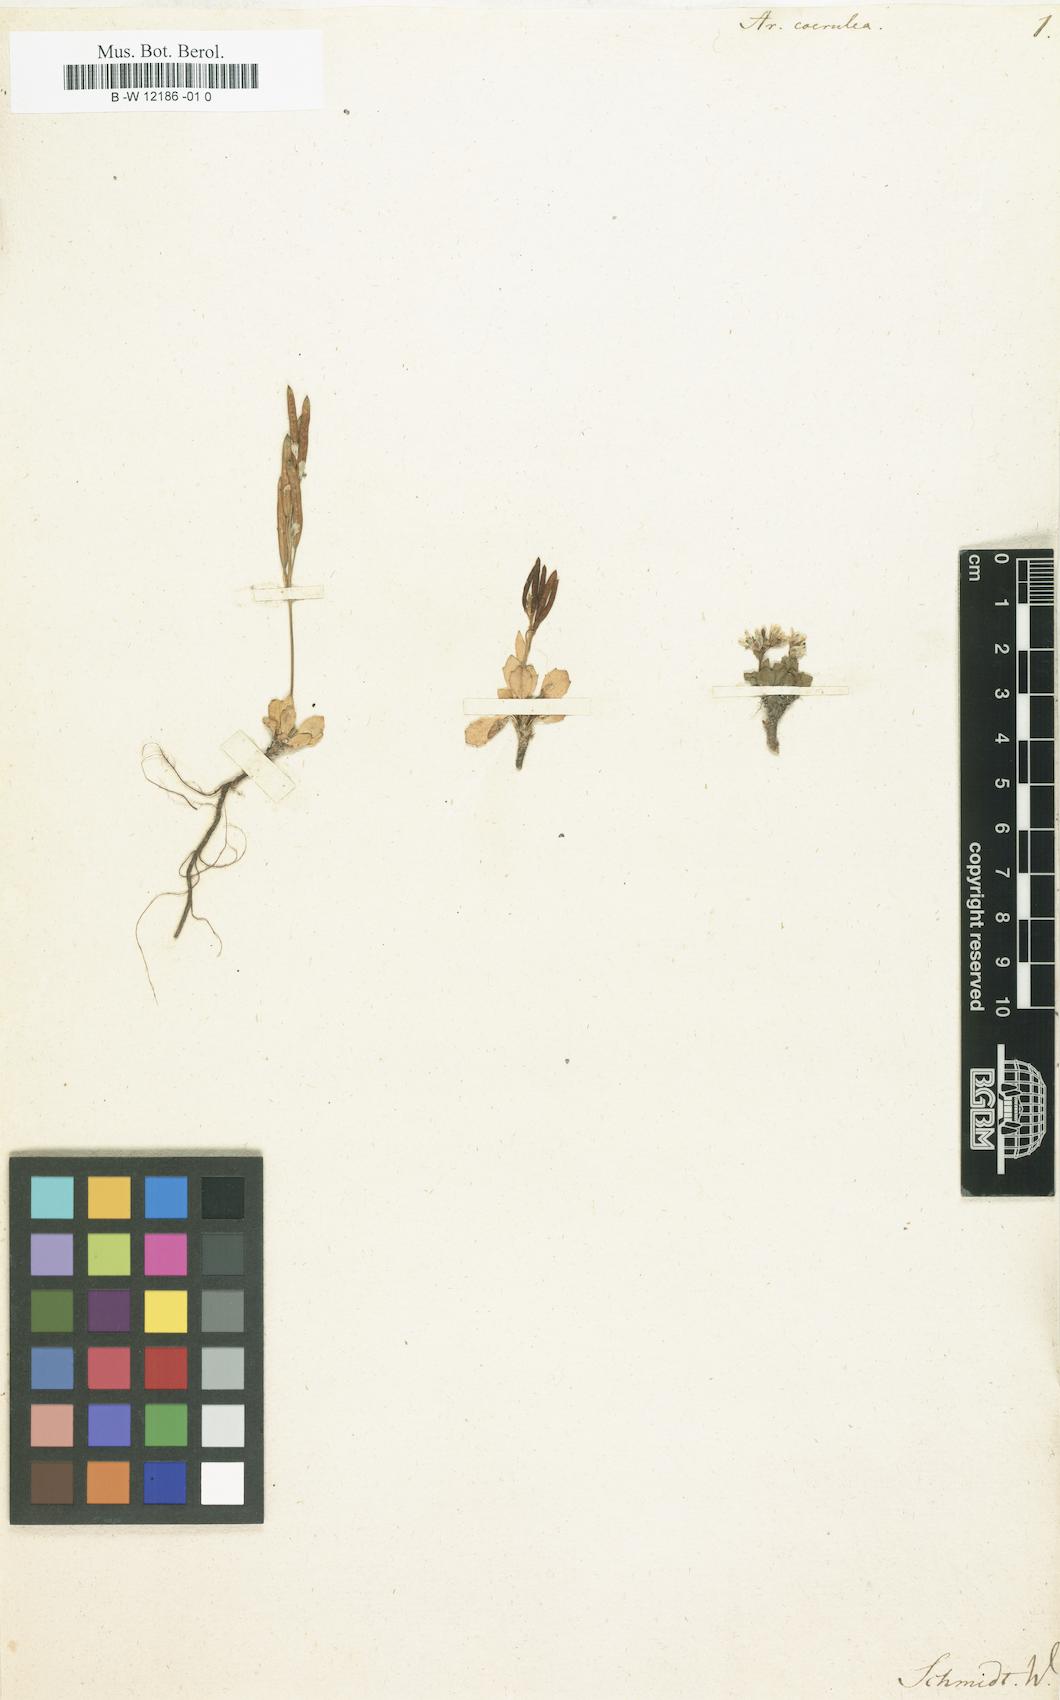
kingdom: Plantae
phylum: Tracheophyta
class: Magnoliopsida
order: Brassicales
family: Brassicaceae
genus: Arabis
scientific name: Arabis coerulea
